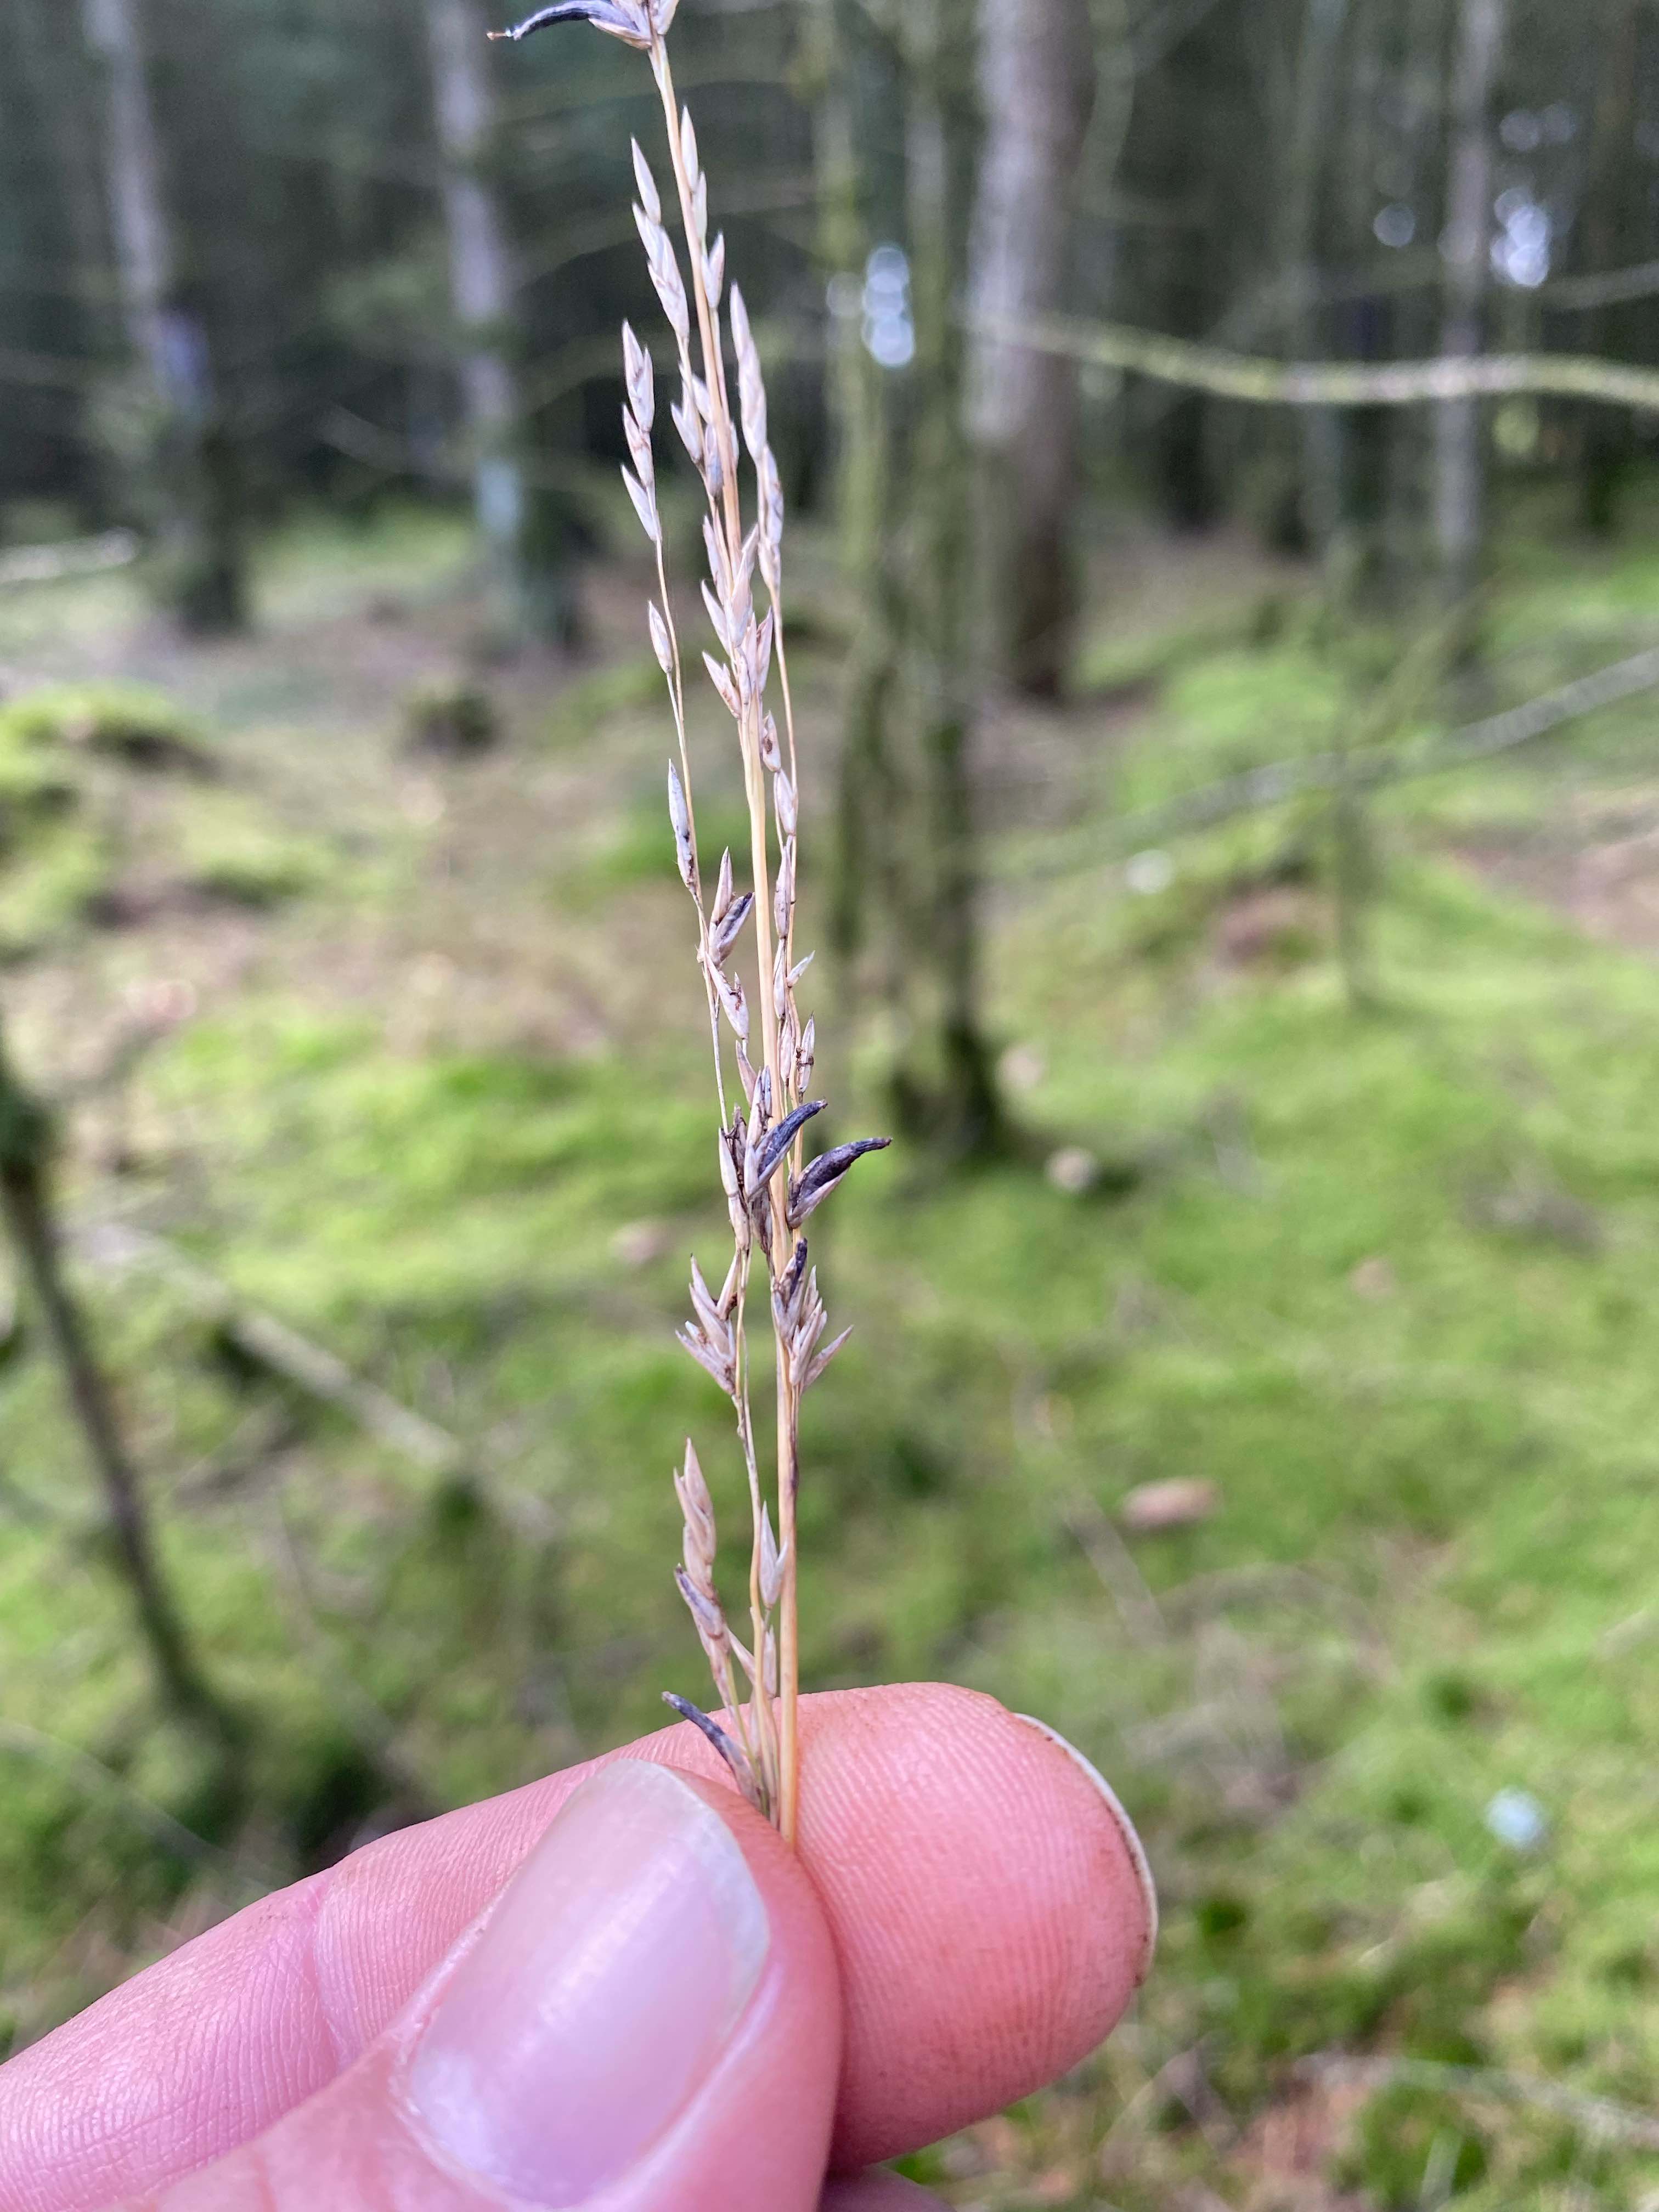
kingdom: Fungi
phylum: Ascomycota
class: Sordariomycetes
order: Hypocreales
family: Clavicipitaceae
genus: Claviceps
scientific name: Claviceps purpurea
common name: almindelig meldrøjer
